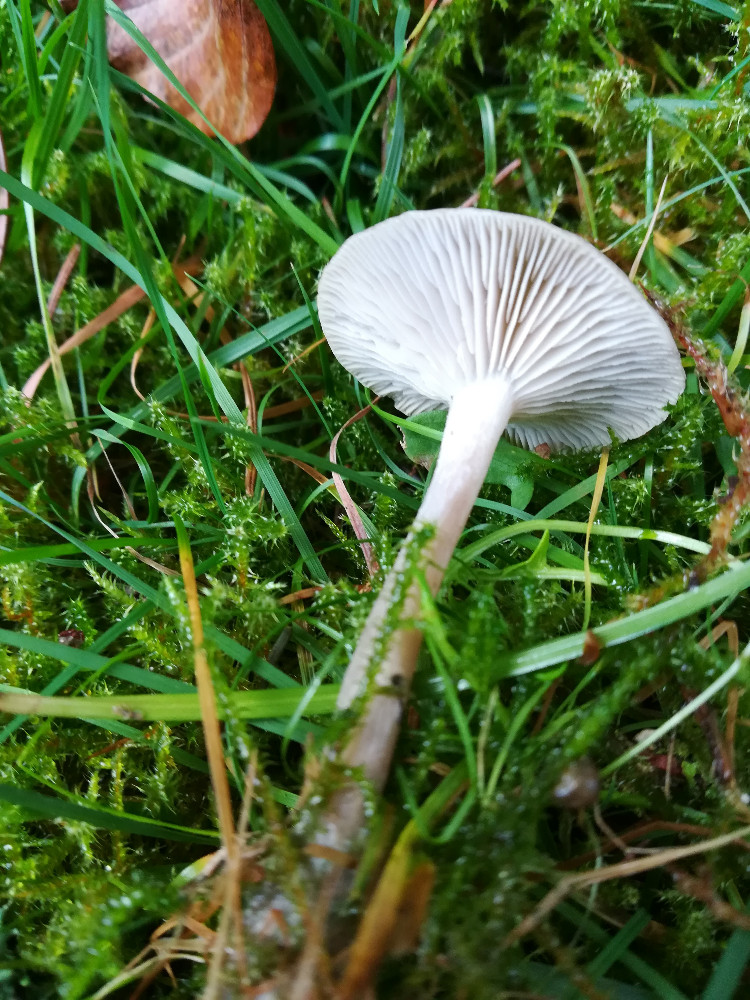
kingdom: Fungi
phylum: Basidiomycota
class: Agaricomycetes
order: Agaricales
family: Tricholomataceae
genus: Clitocybe
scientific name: Clitocybe
